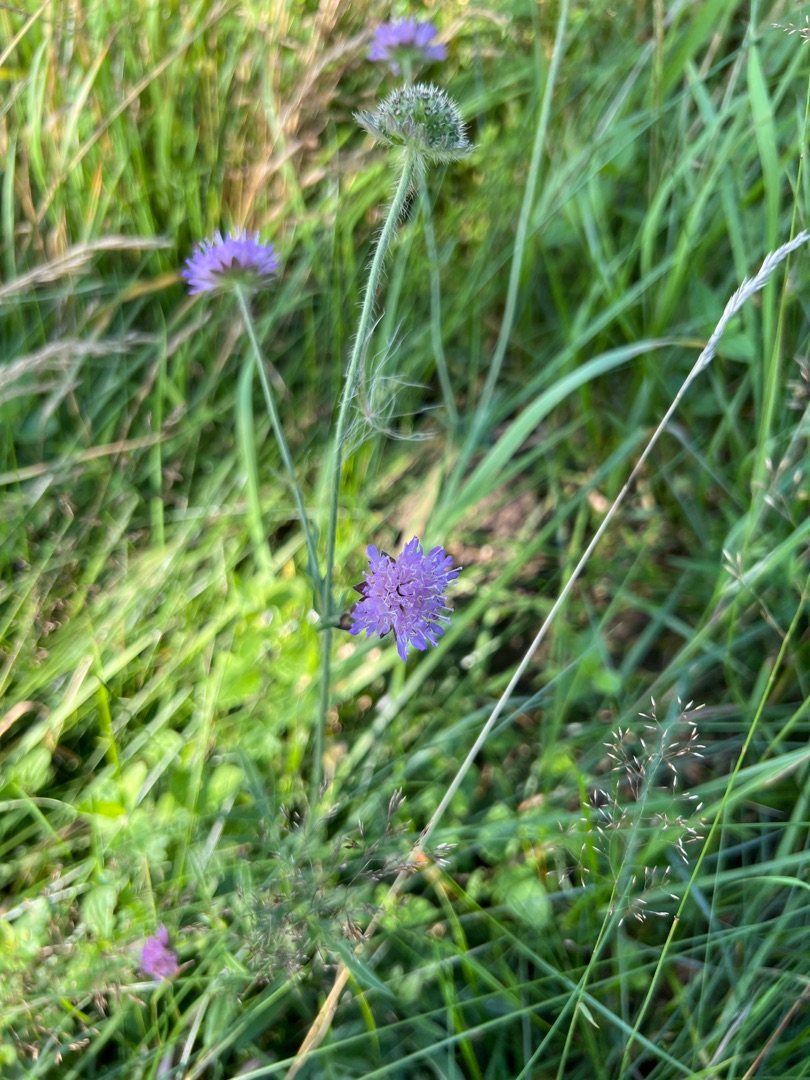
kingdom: Plantae
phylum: Tracheophyta
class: Magnoliopsida
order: Dipsacales
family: Caprifoliaceae
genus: Knautia
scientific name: Knautia arvensis
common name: Blåhat
